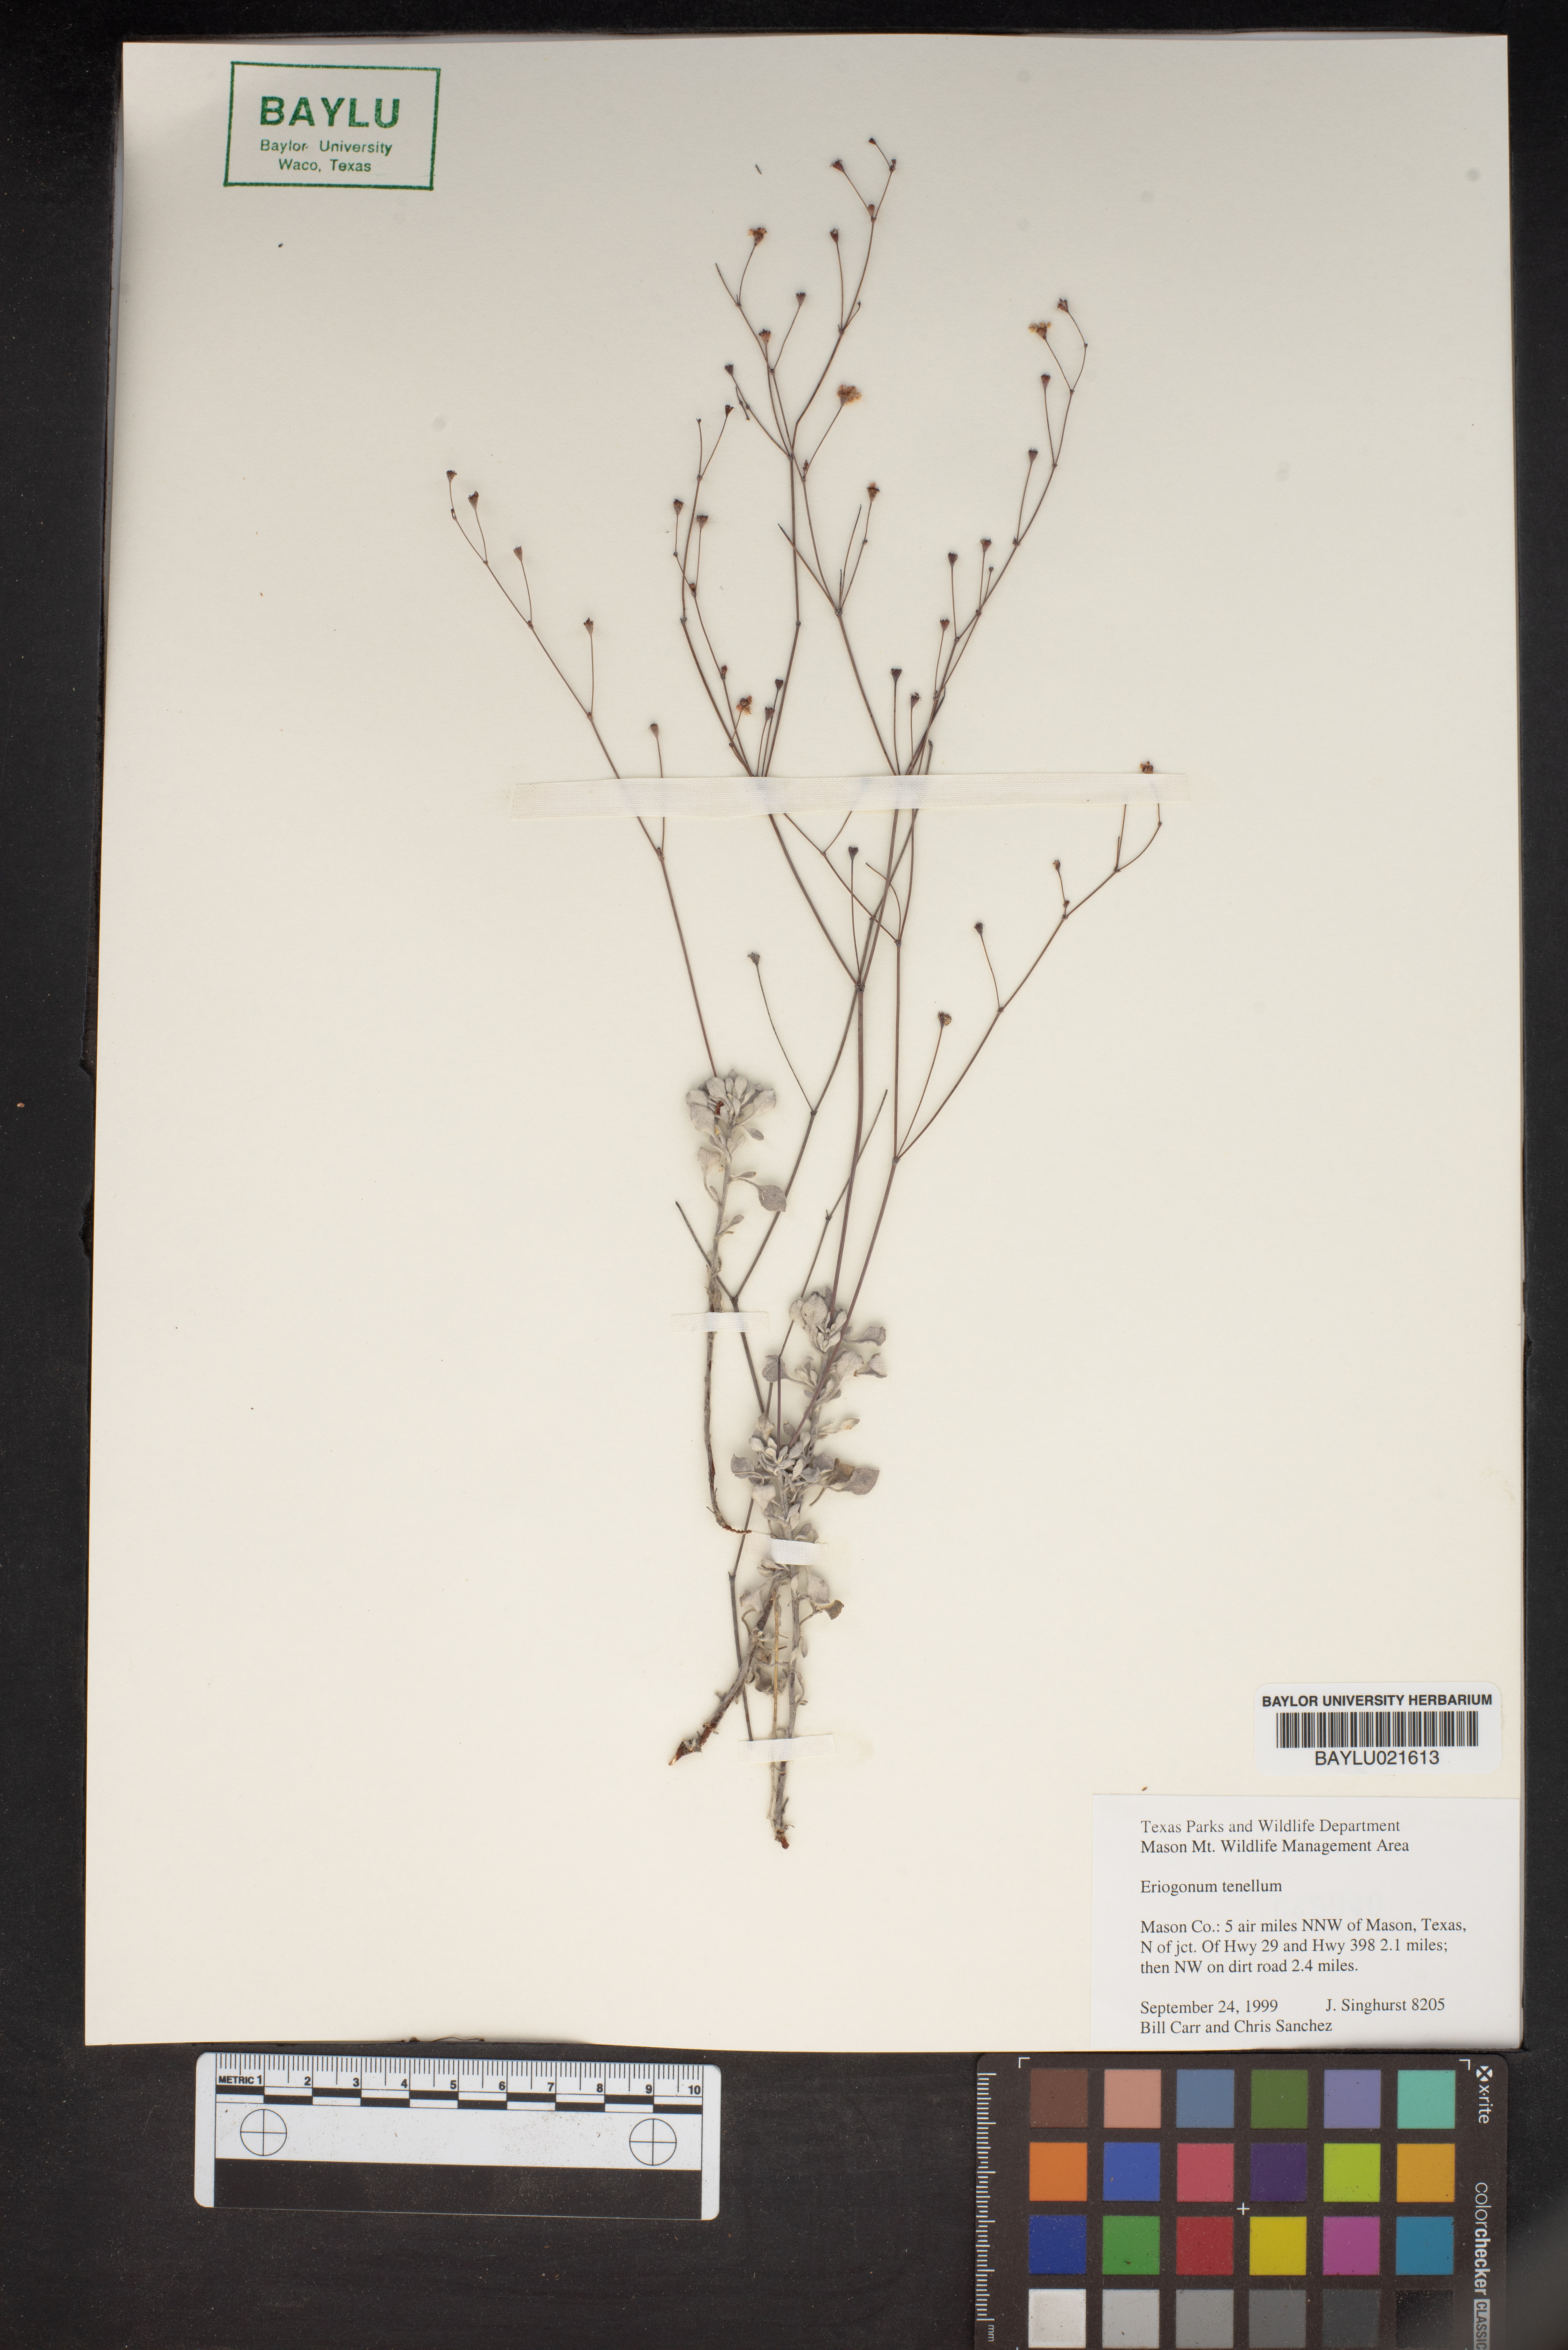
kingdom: Plantae
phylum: Tracheophyta
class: Magnoliopsida
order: Caryophyllales
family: Polygonaceae
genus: Eriogonum
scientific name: Eriogonum tenellum
